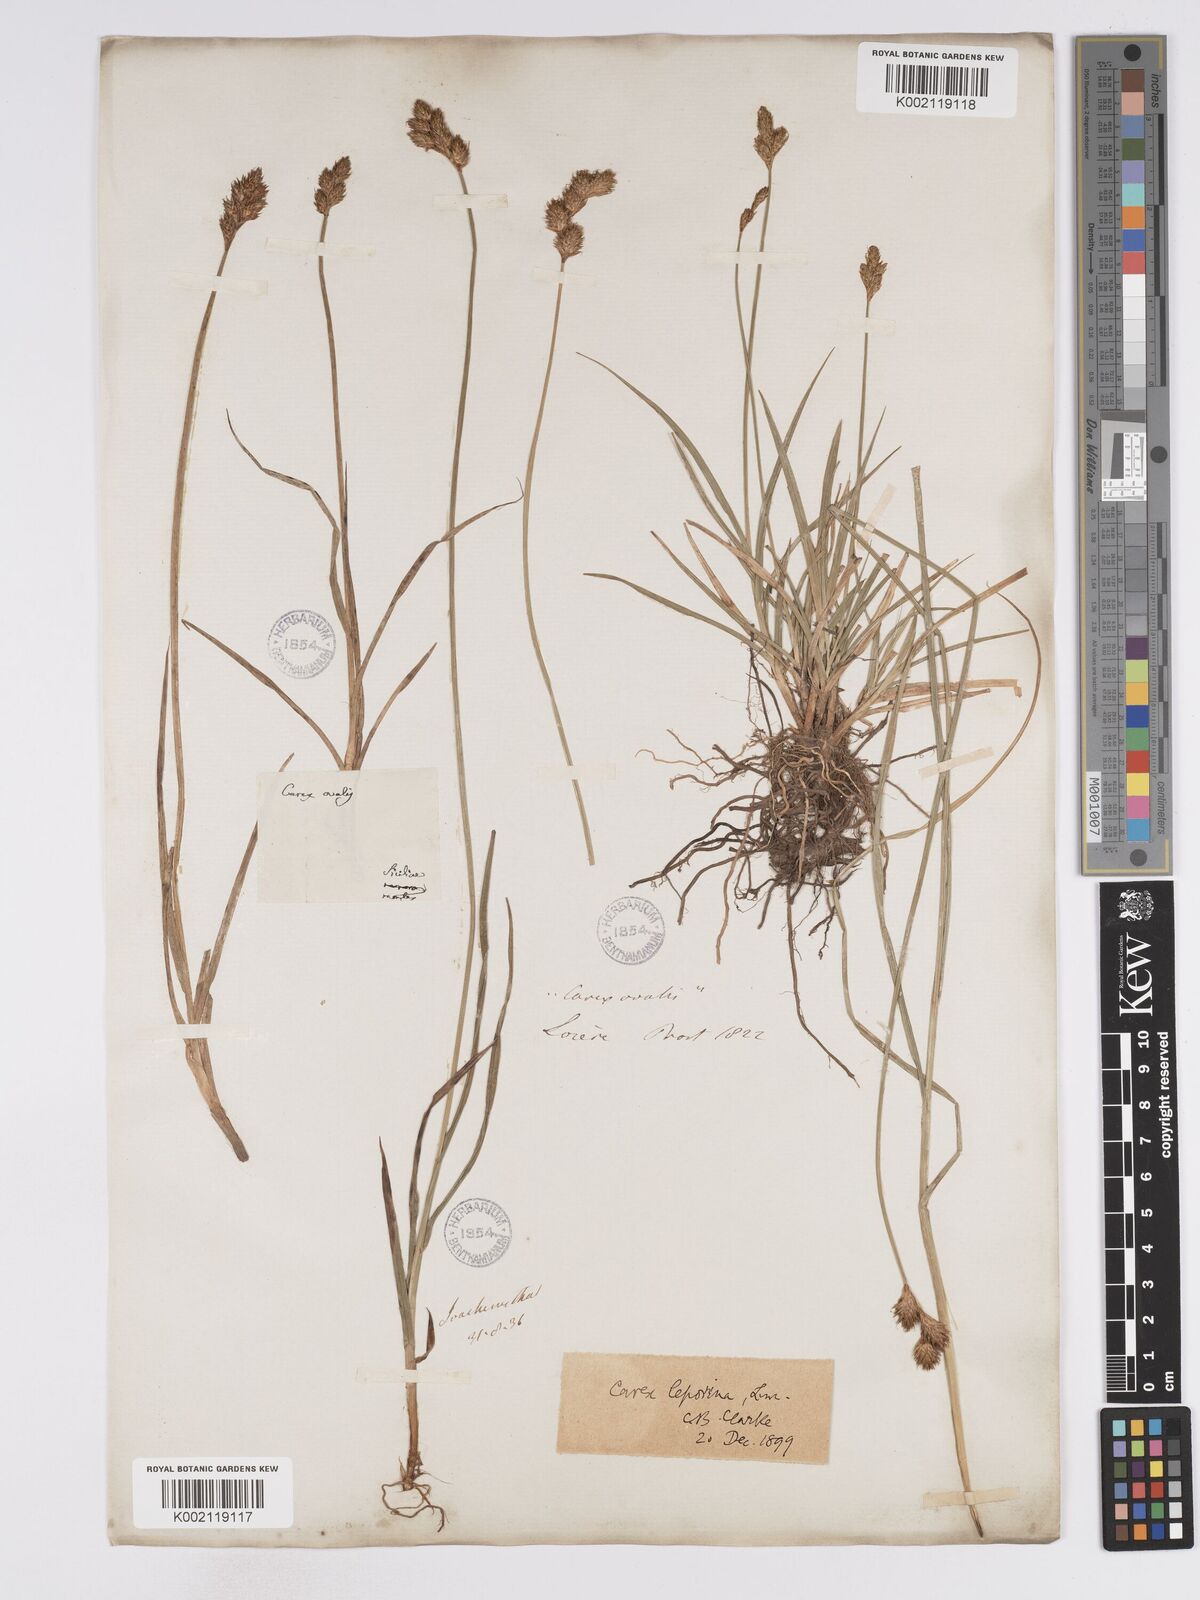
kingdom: Plantae
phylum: Tracheophyta
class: Liliopsida
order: Poales
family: Cyperaceae
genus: Carex
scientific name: Carex leporina
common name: Oval sedge
